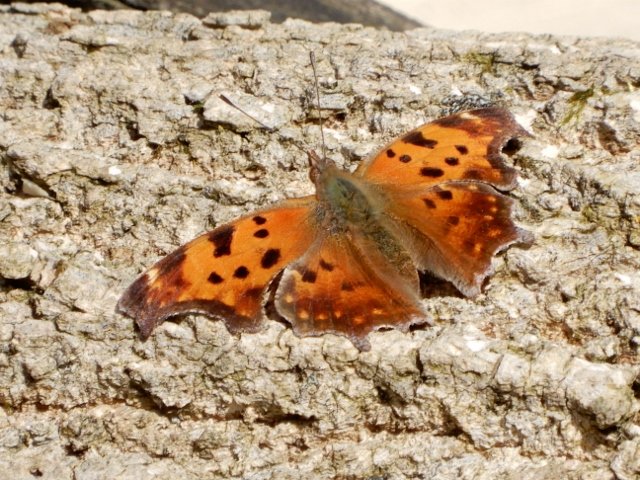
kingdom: Animalia
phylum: Arthropoda
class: Insecta
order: Lepidoptera
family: Nymphalidae
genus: Polygonia
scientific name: Polygonia comma
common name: Eastern Comma
